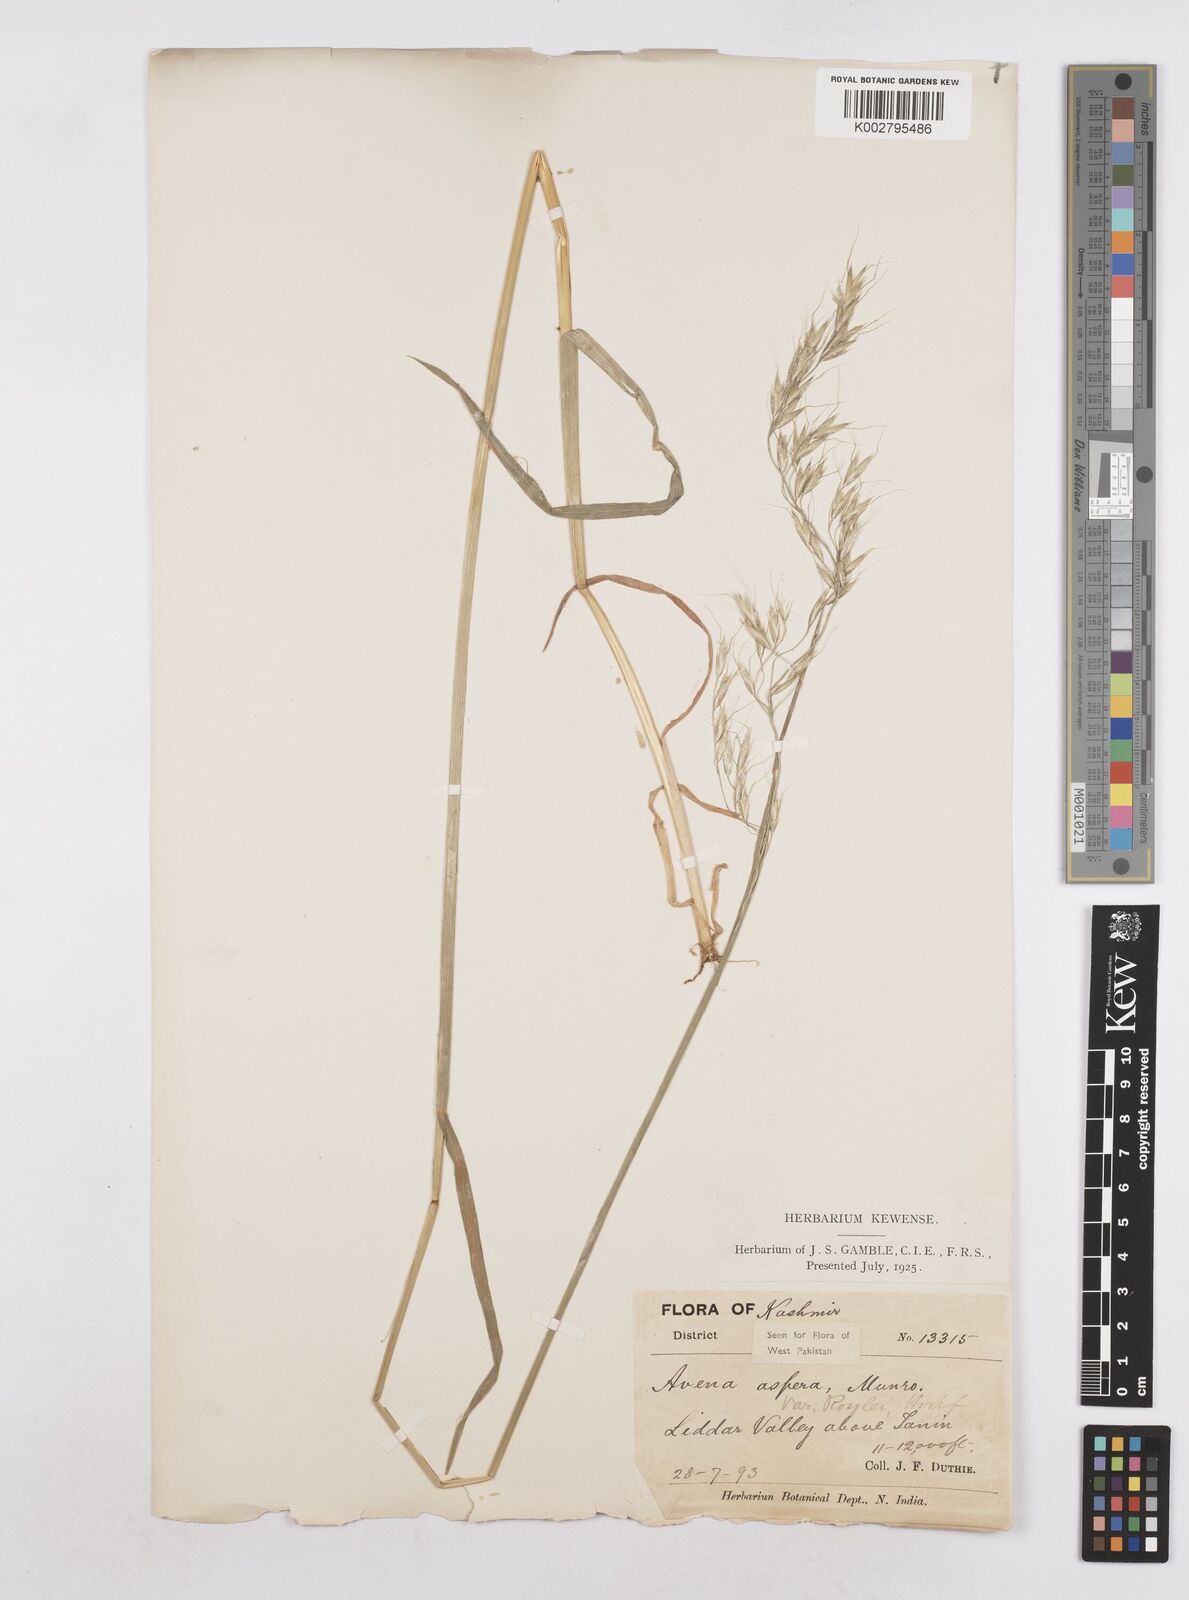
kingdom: Plantae
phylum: Tracheophyta
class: Liliopsida
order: Poales
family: Poaceae
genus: Trisetopsis
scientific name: Trisetopsis junghuhnii
